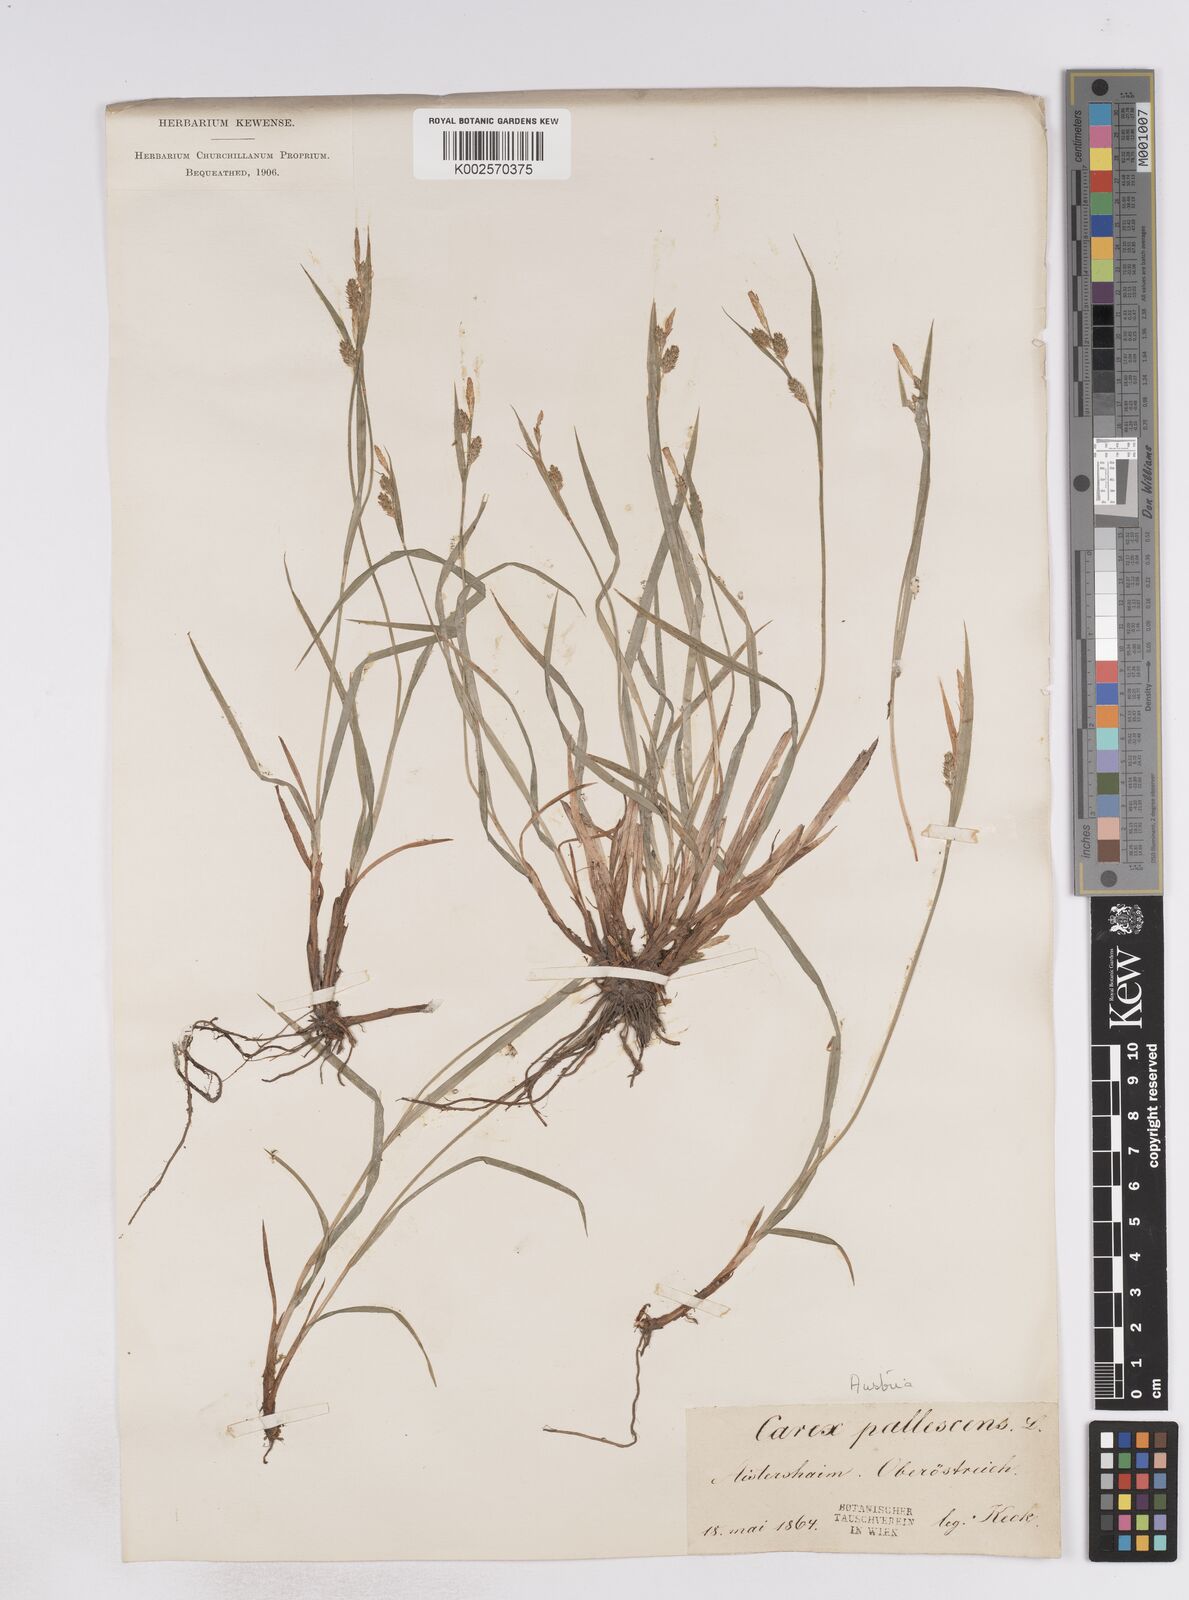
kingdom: Plantae
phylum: Tracheophyta
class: Liliopsida
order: Poales
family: Cyperaceae
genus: Carex
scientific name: Carex pallescens
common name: Pale sedge
